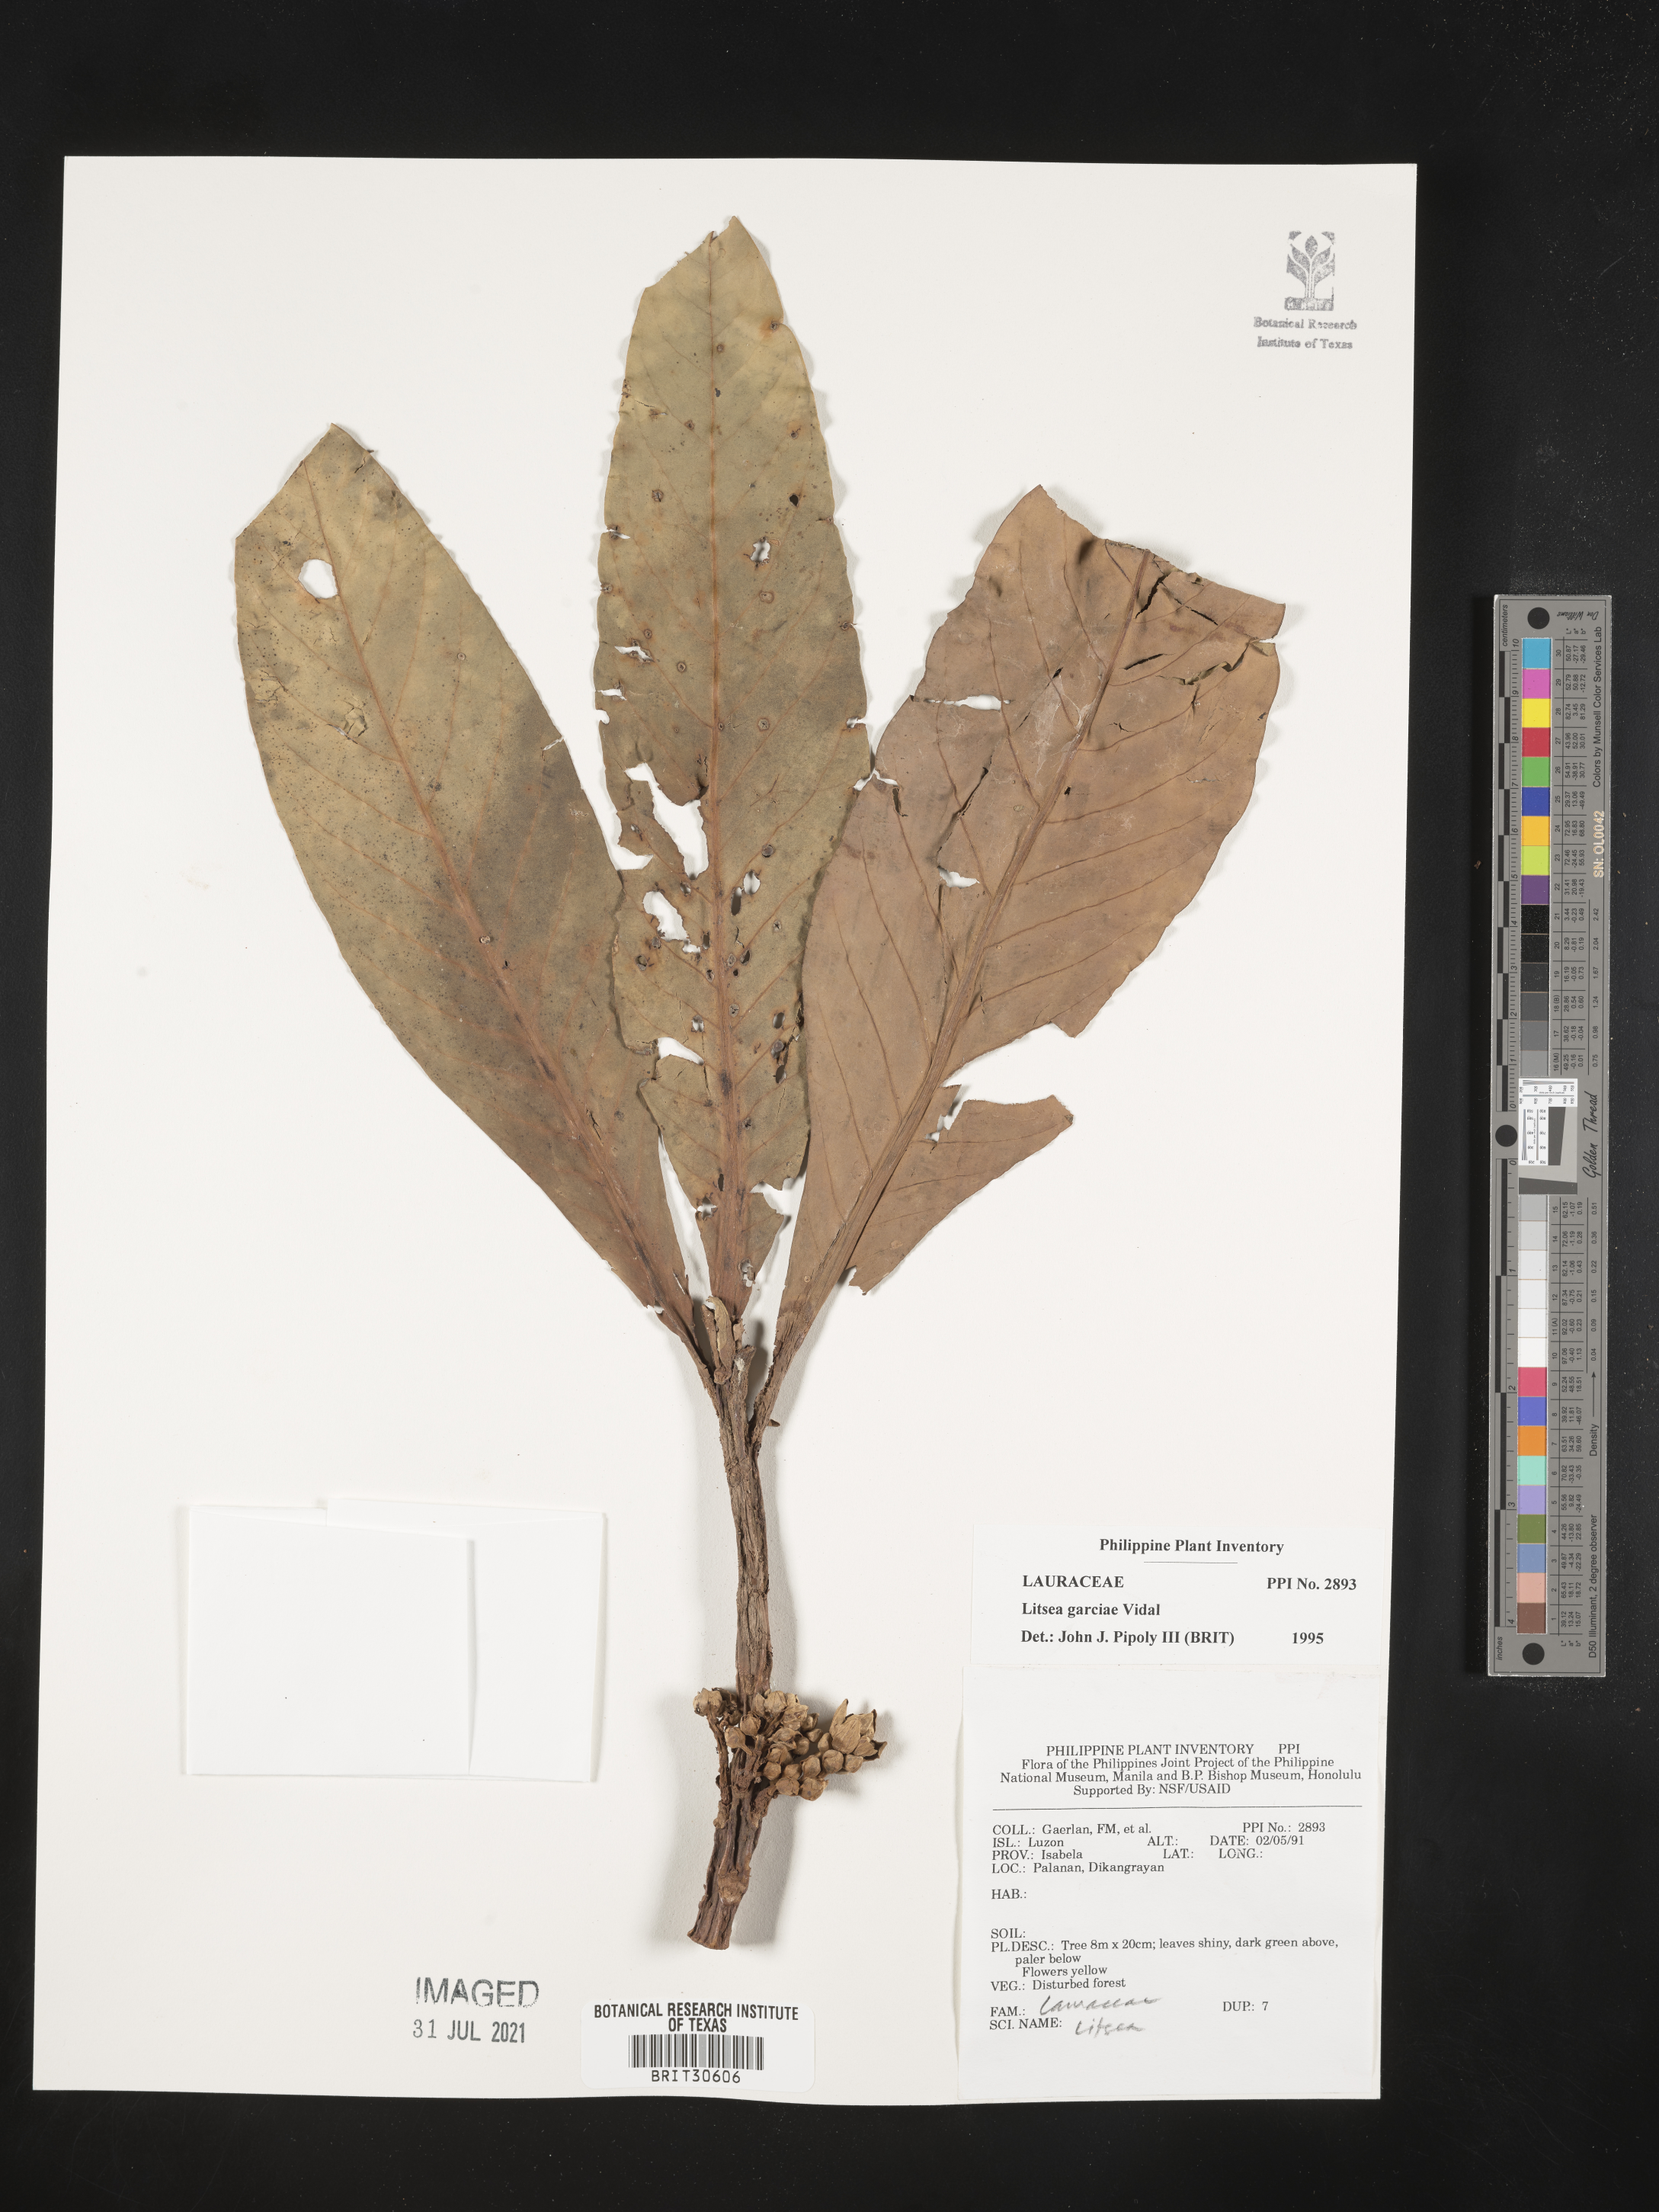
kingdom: Plantae
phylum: Tracheophyta
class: Magnoliopsida
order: Laurales
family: Lauraceae
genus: Litsea
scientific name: Litsea garciae
